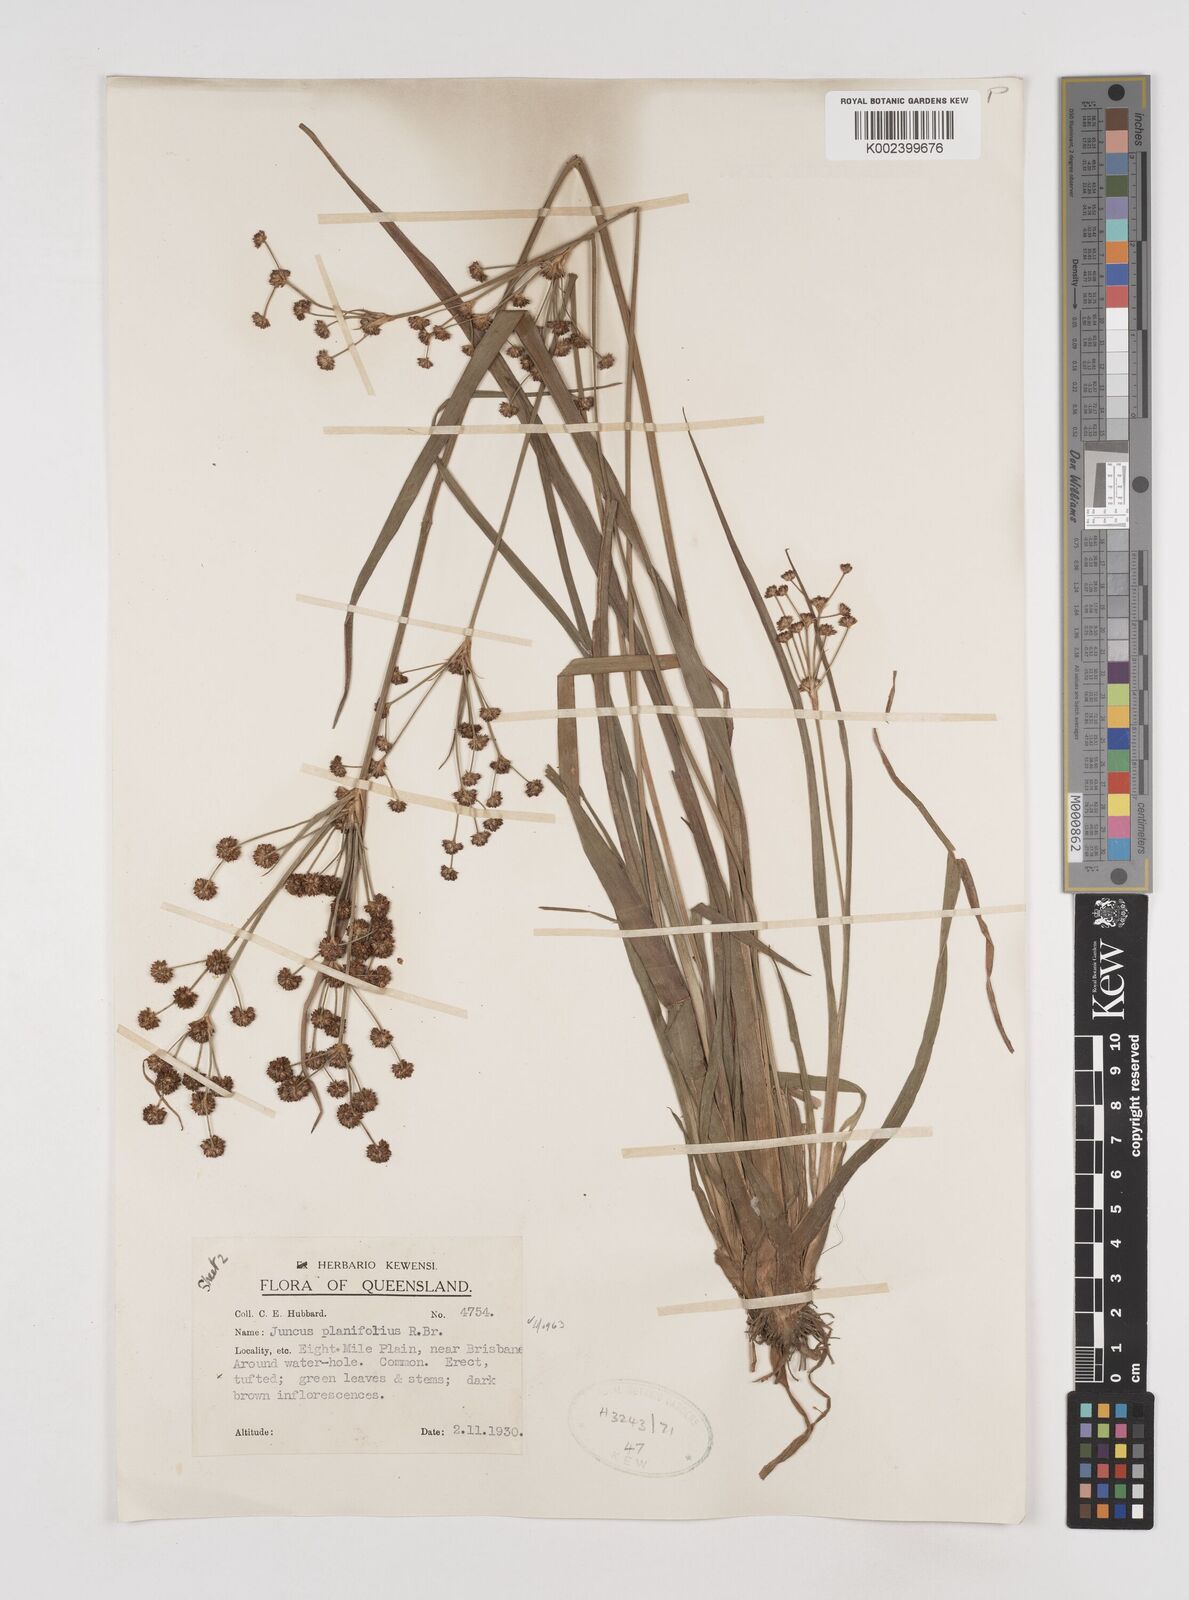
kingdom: Plantae
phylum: Tracheophyta
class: Liliopsida
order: Poales
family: Juncaceae
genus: Juncus
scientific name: Juncus planifolius
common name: Broadleaf rush
